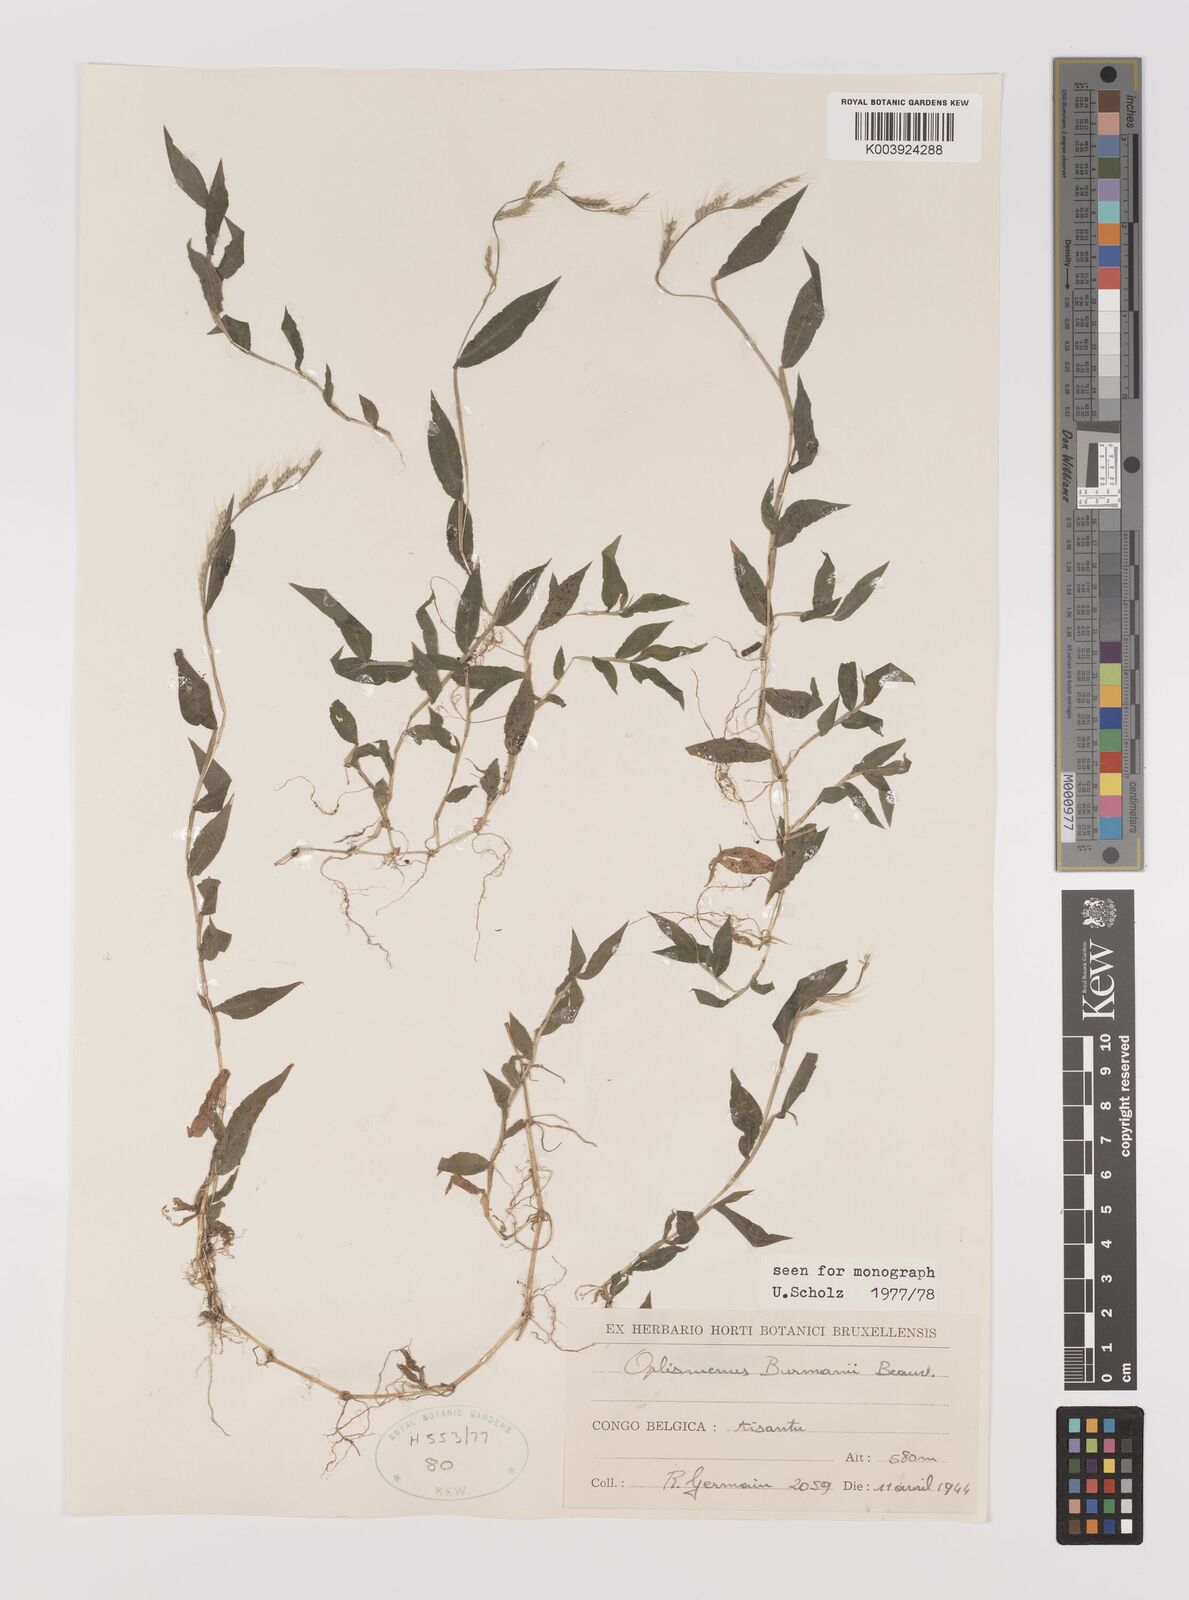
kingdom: Plantae
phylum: Tracheophyta
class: Liliopsida
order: Poales
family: Poaceae
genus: Oplismenus
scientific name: Oplismenus burmanni
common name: Burmann's basketgrass
